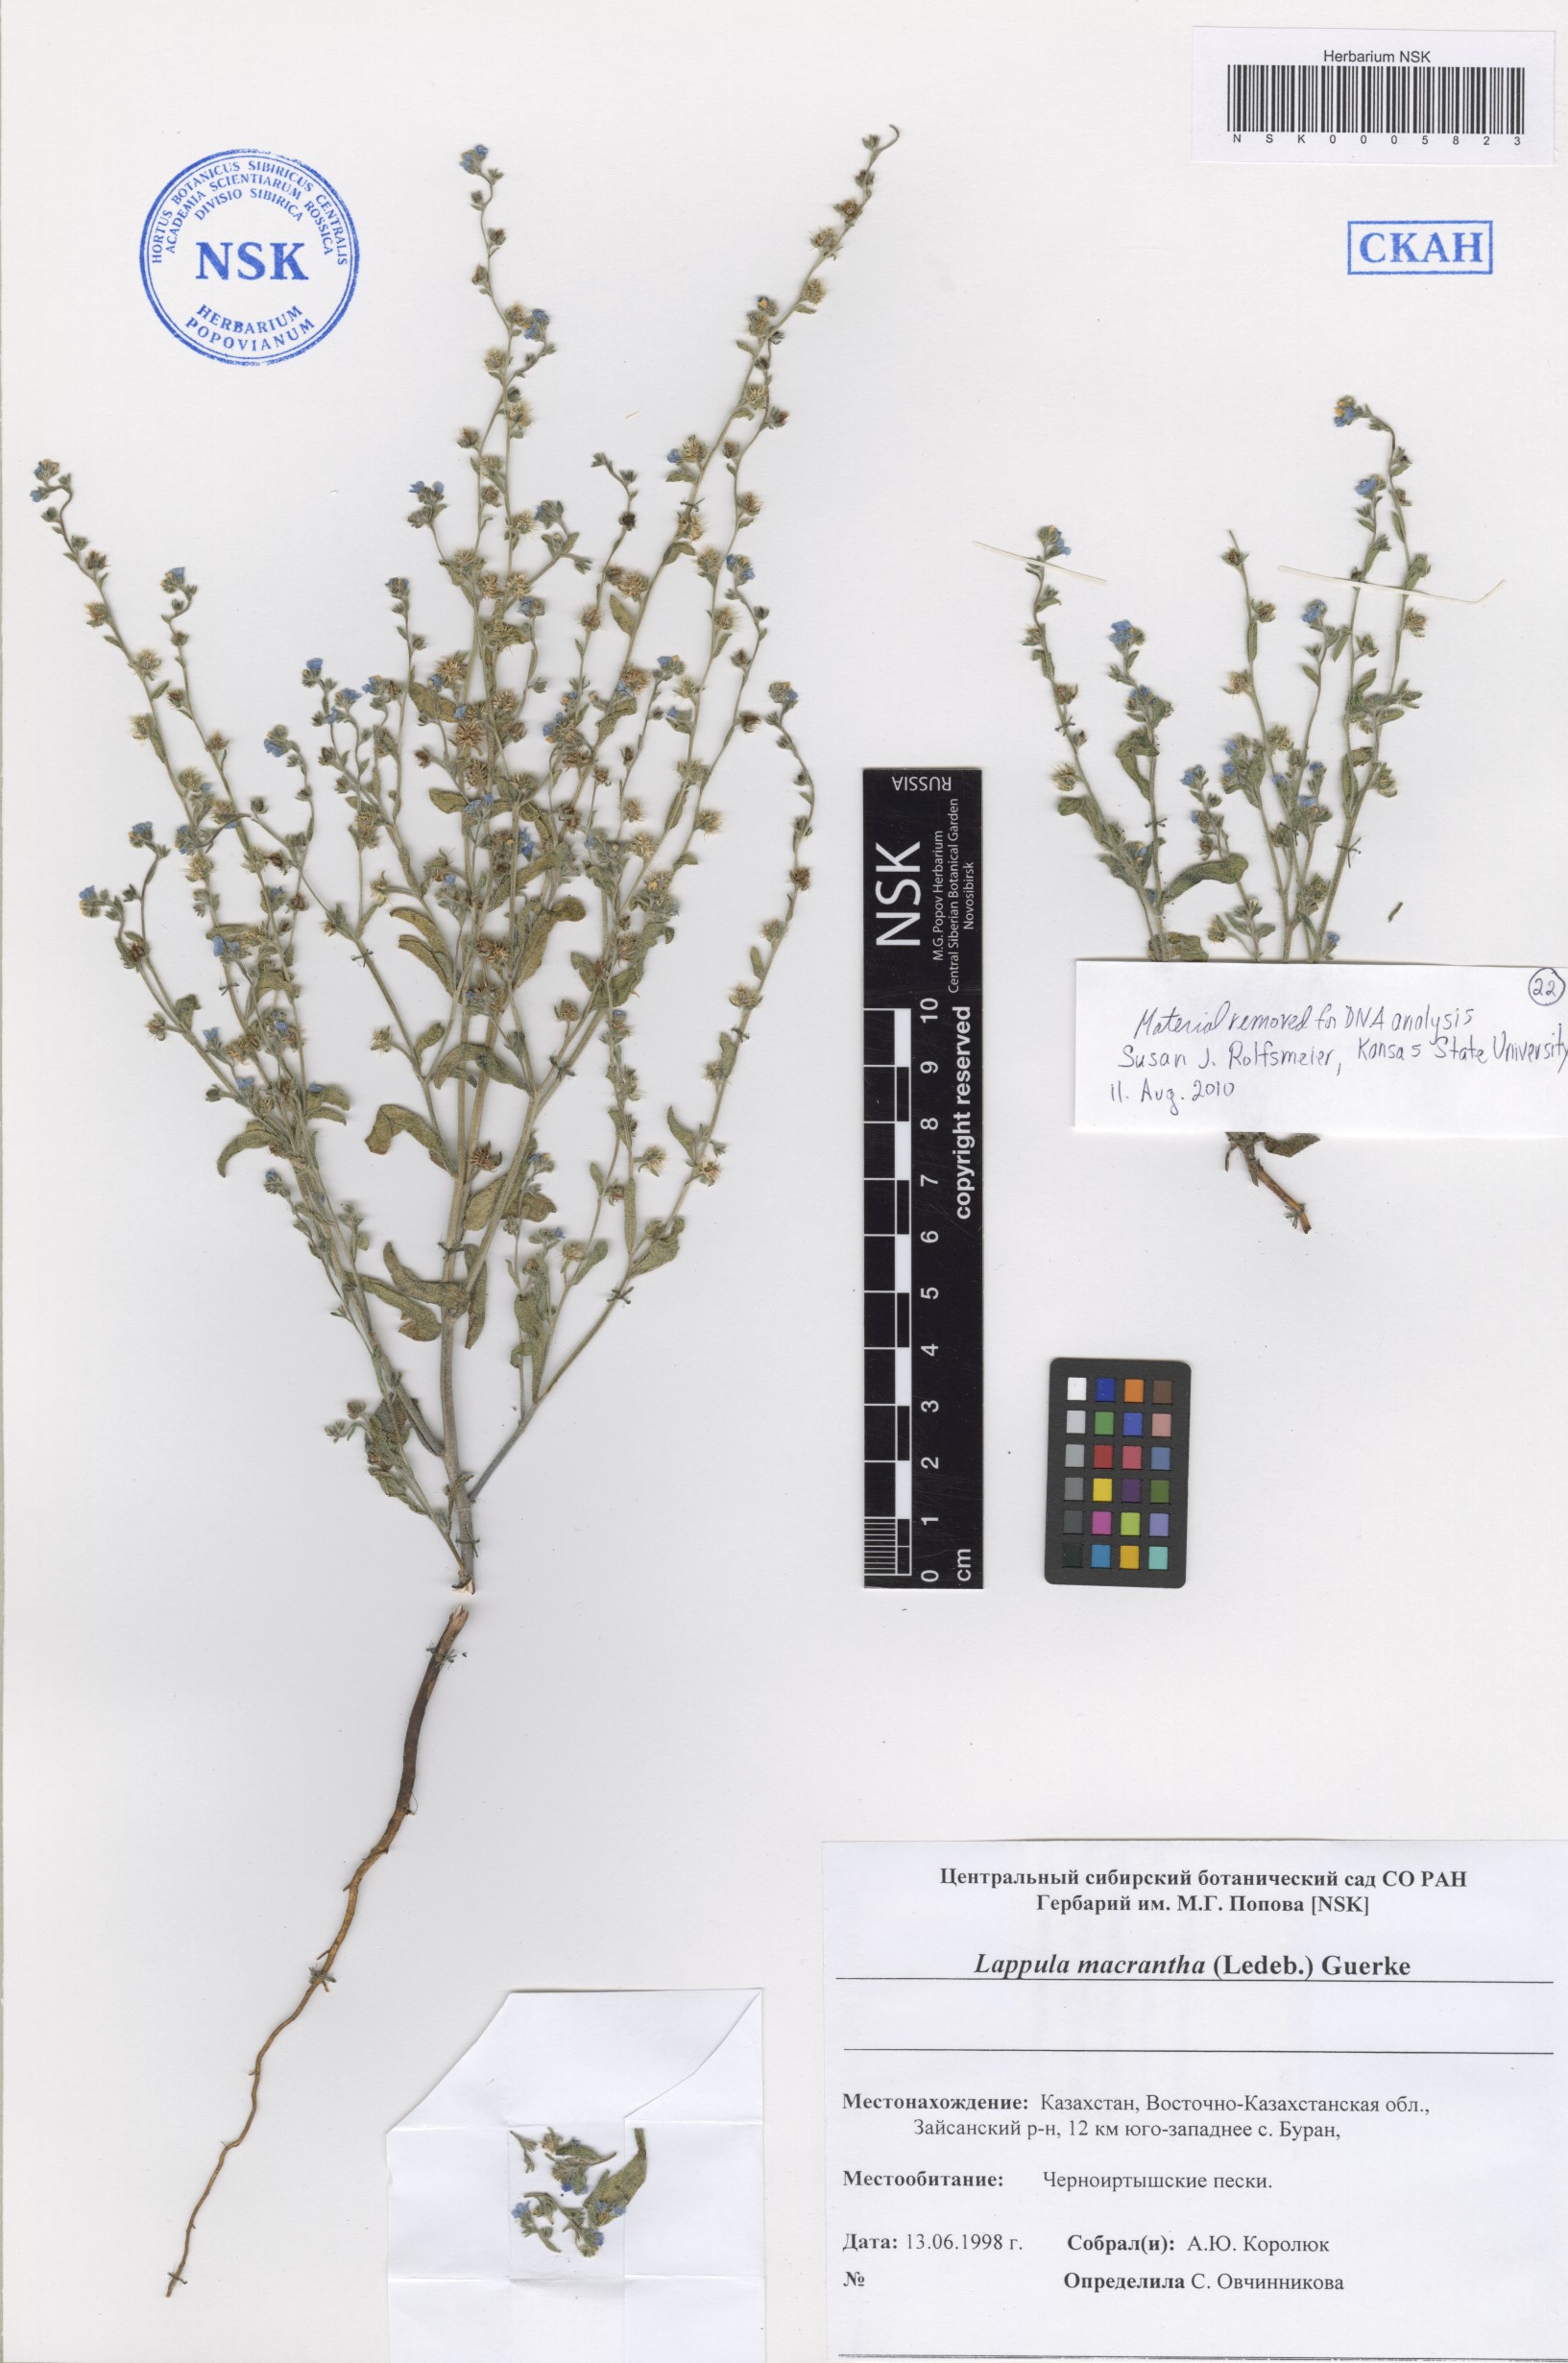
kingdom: Plantae
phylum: Tracheophyta
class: Magnoliopsida
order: Boraginales
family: Boraginaceae
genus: Lappula
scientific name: Lappula macrantha
